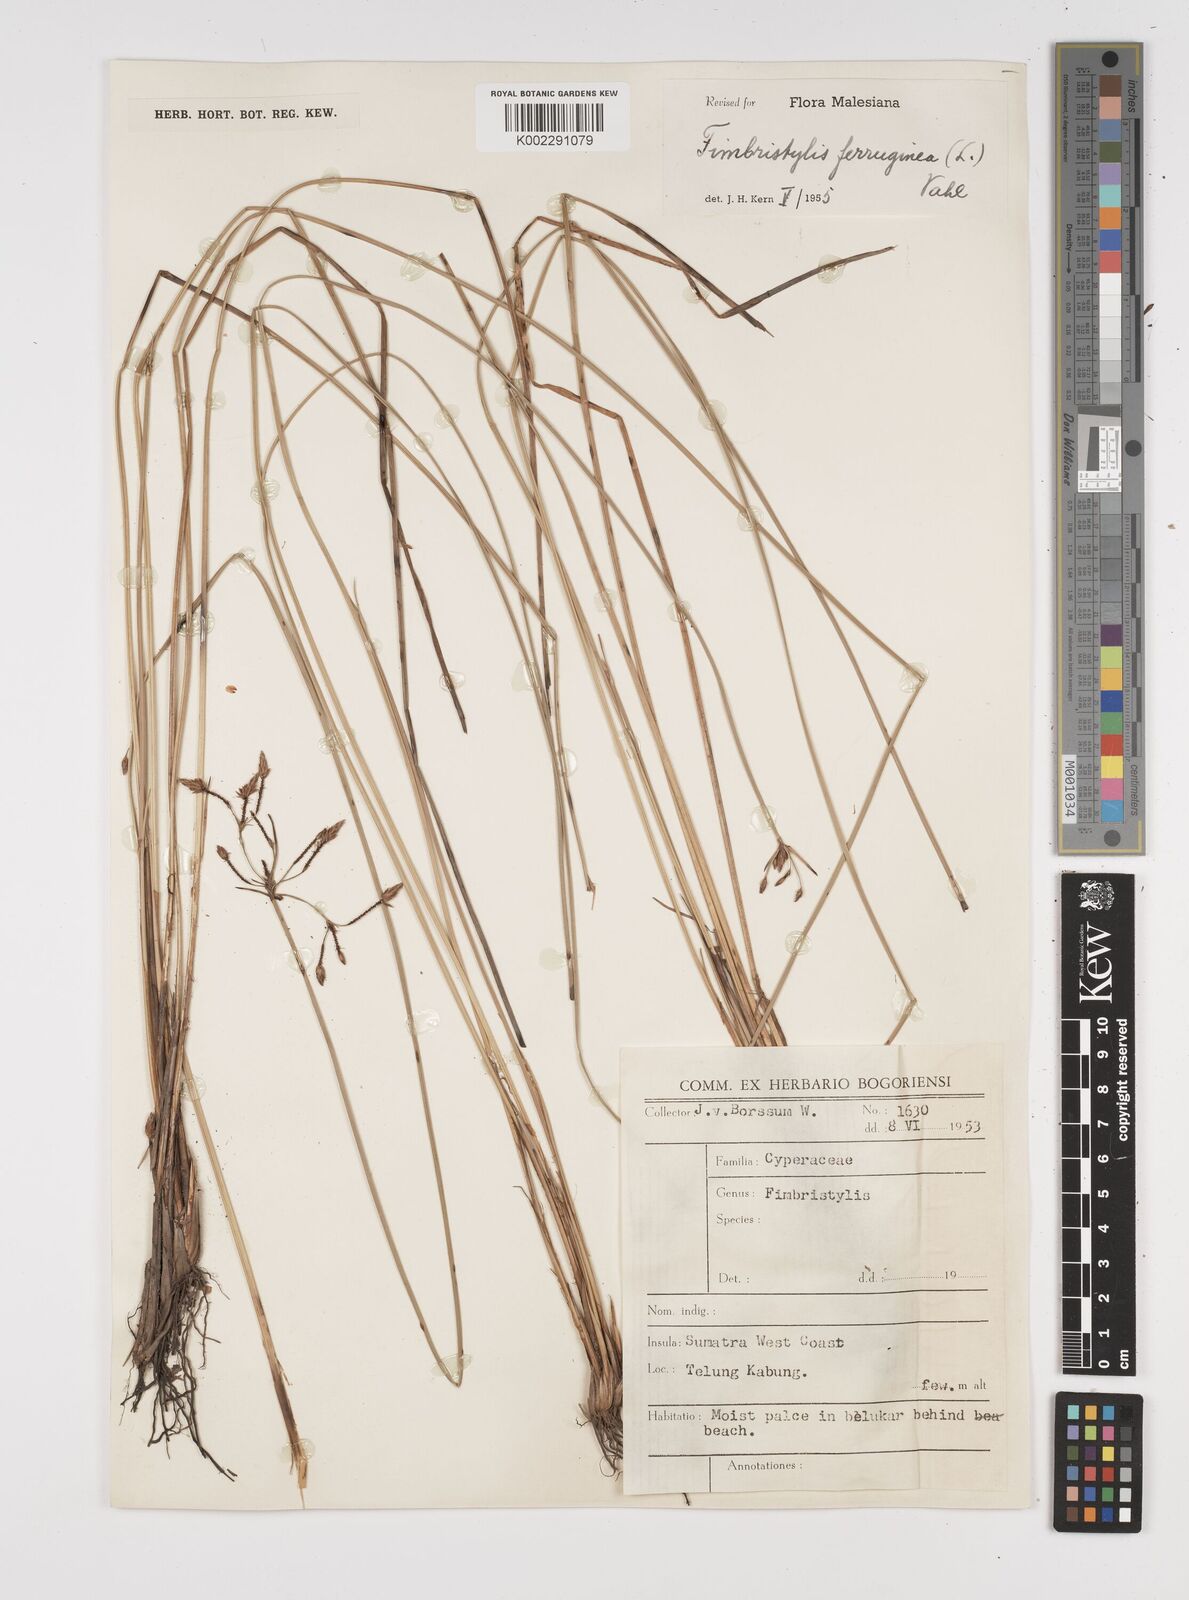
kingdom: Plantae
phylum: Tracheophyta
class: Liliopsida
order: Poales
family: Cyperaceae
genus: Fimbristylis
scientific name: Fimbristylis ferruginea
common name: West indian fimbry
